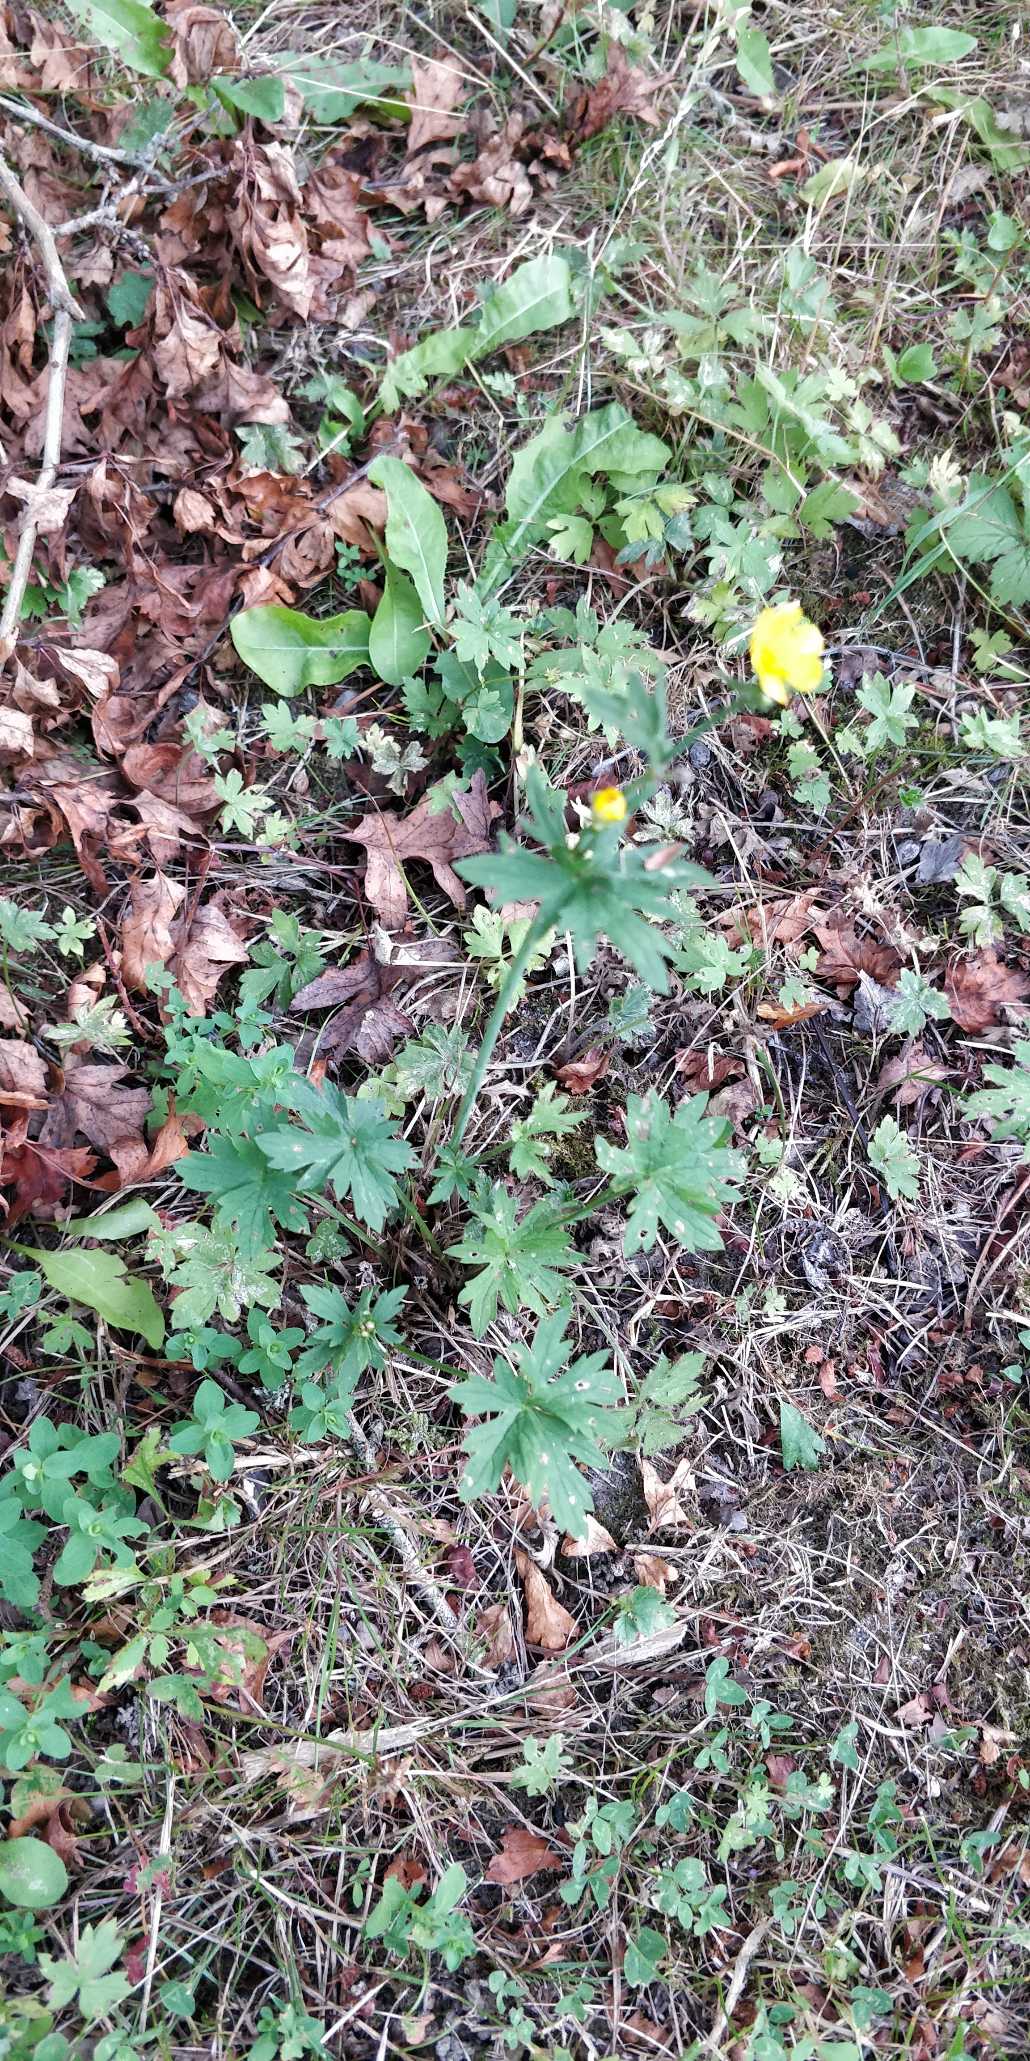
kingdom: Plantae
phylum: Tracheophyta
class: Magnoliopsida
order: Ranunculales
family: Ranunculaceae
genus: Ranunculus
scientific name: Ranunculus acris
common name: Bidende ranunkel
